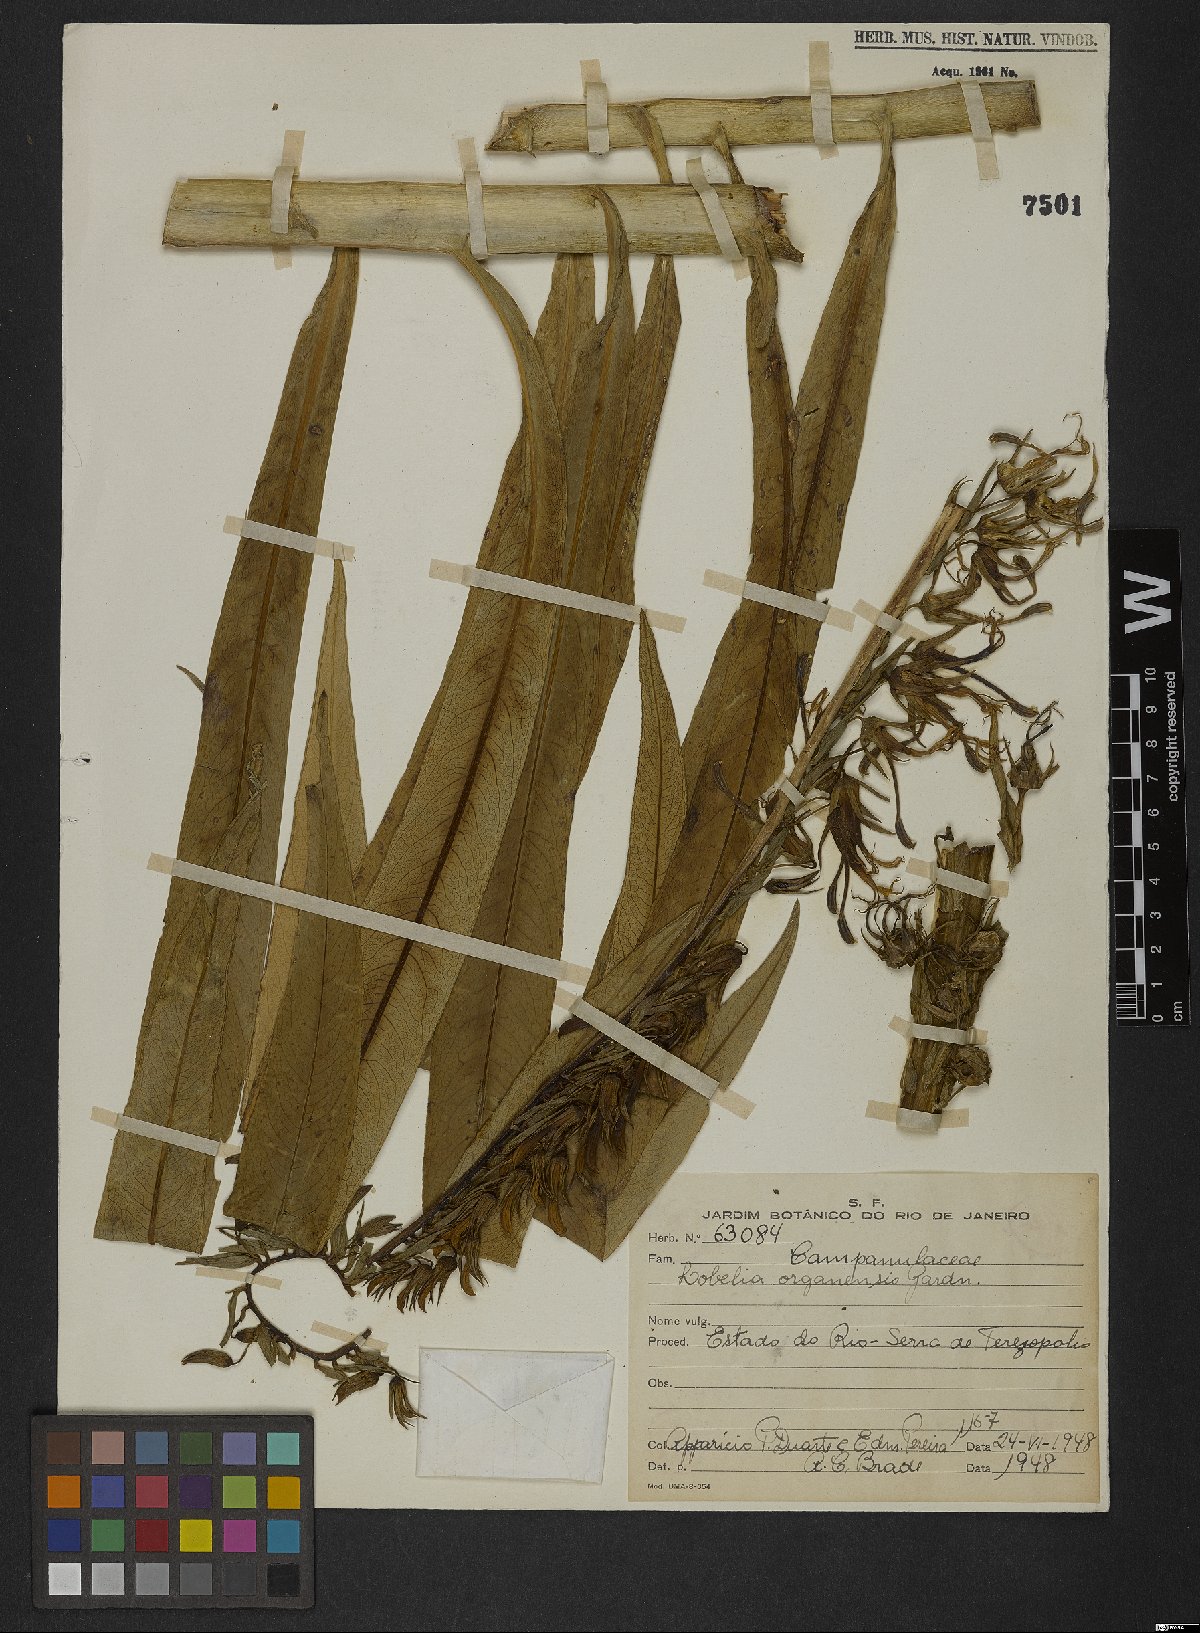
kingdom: Plantae
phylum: Tracheophyta
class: Magnoliopsida
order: Asterales
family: Campanulaceae
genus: Lobelia
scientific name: Lobelia organensis
